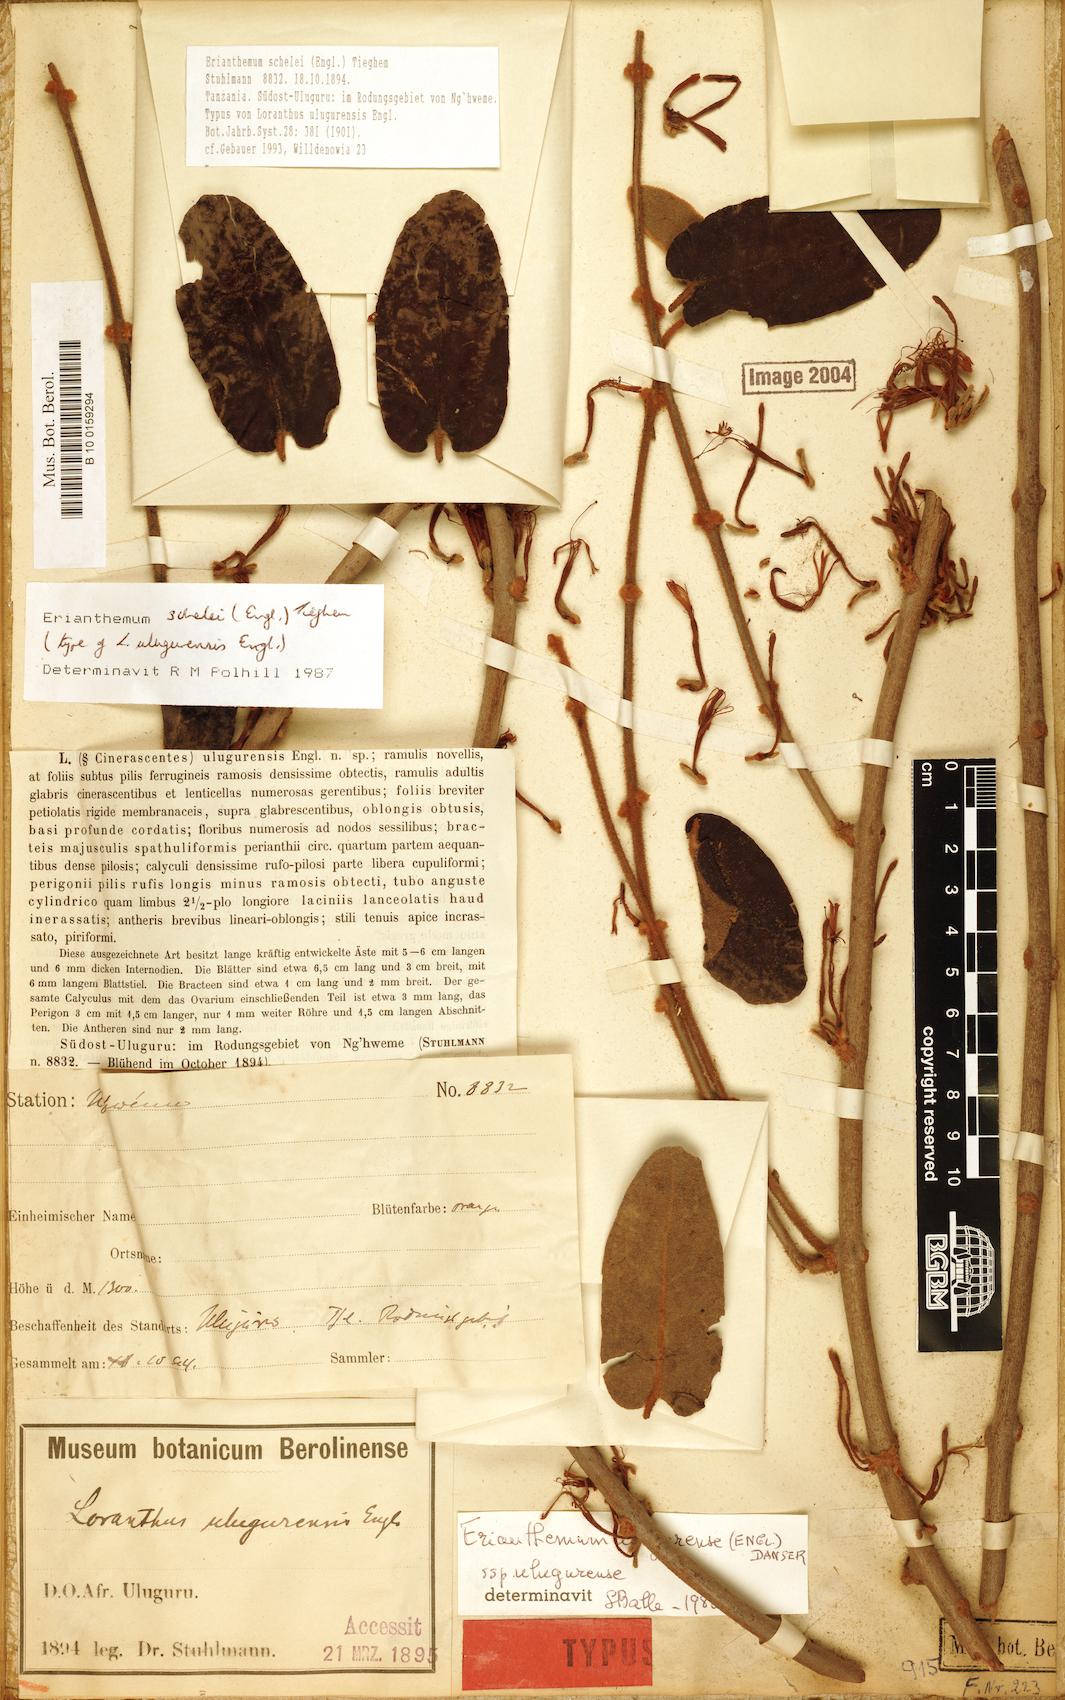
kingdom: Plantae
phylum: Tracheophyta
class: Magnoliopsida
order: Santalales
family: Loranthaceae
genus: Erianthemum
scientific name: Erianthemum schelei
